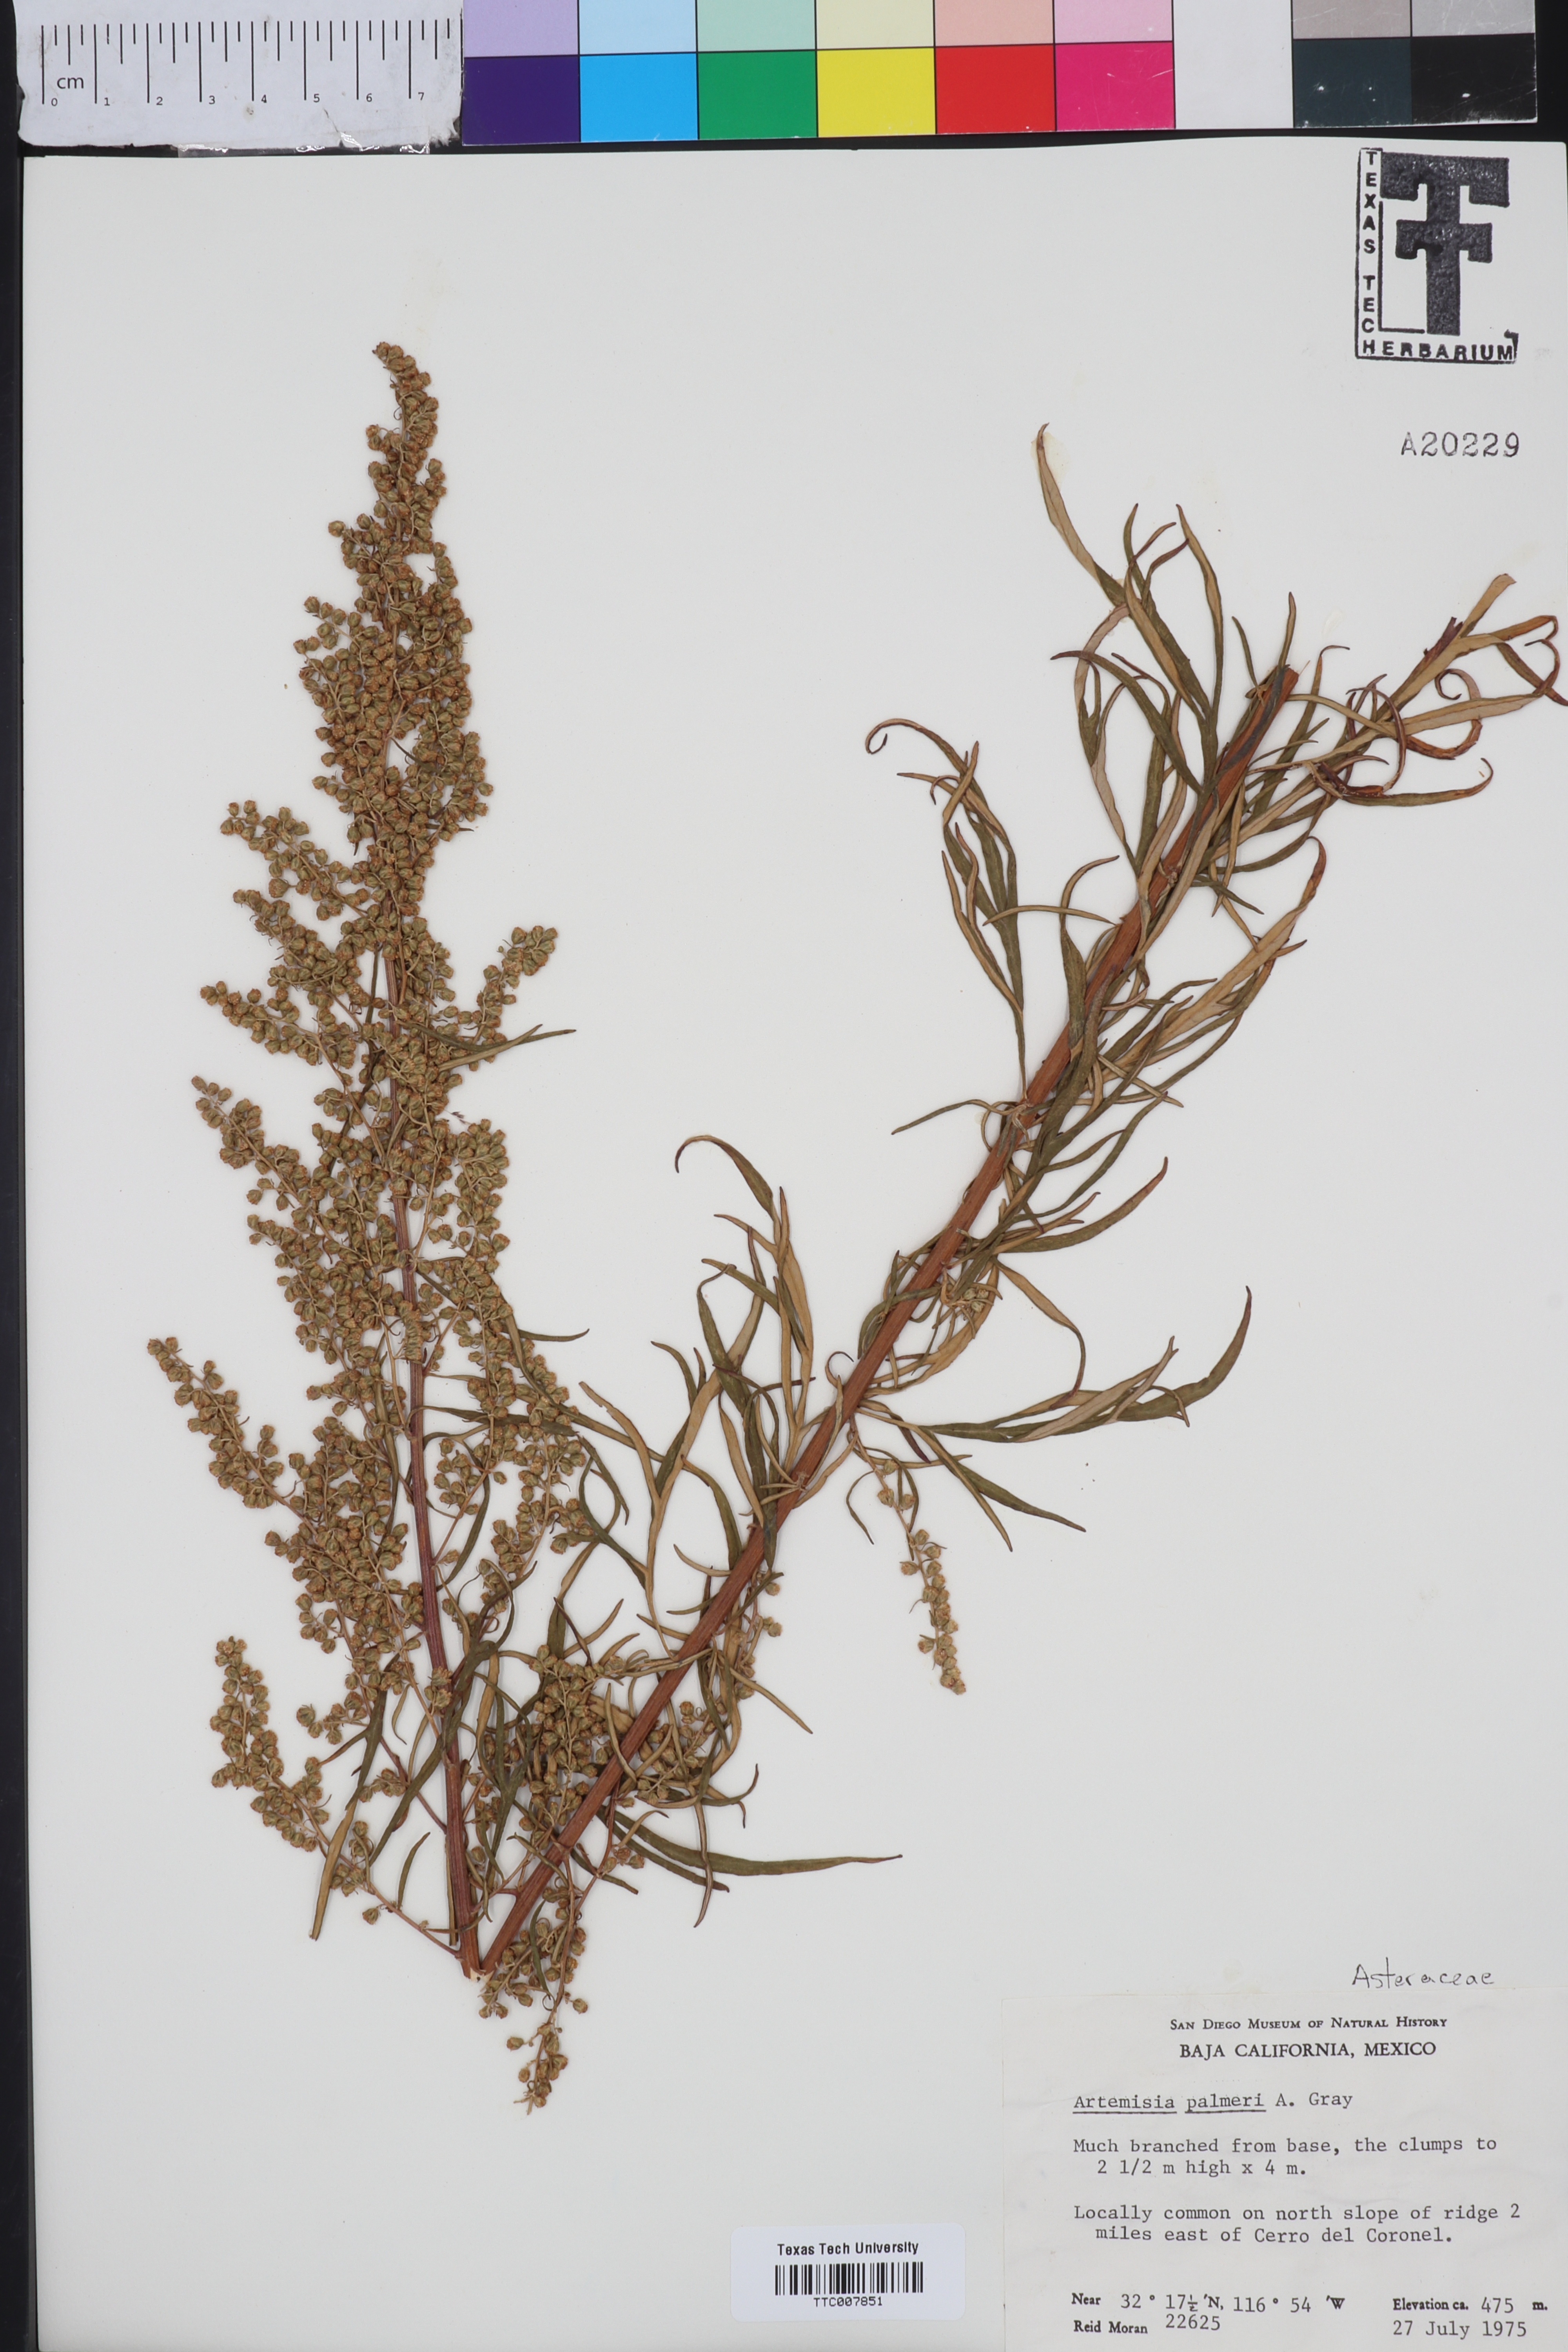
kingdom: Plantae
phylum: Tracheophyta
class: Magnoliopsida
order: Asterales
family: Asteraceae
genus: Artemisia
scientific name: Artemisia palmeri
